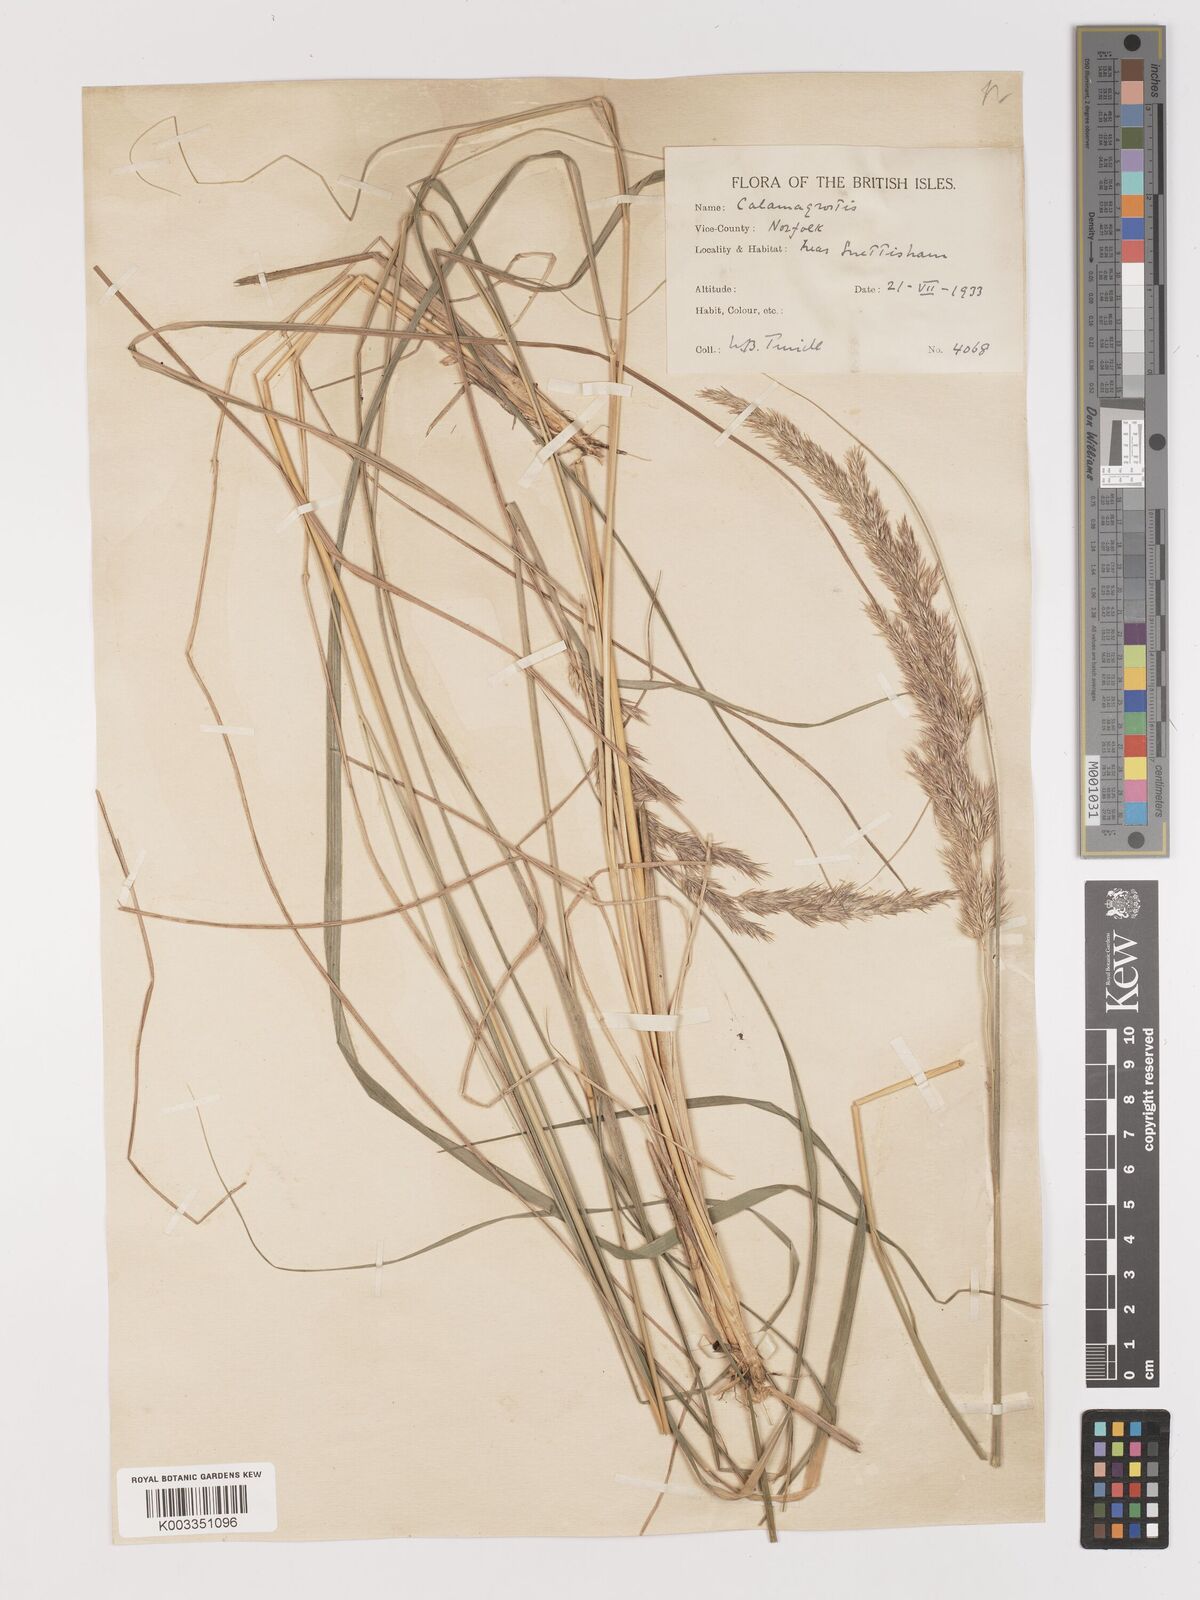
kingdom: Plantae
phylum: Tracheophyta
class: Liliopsida
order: Poales
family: Poaceae
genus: Calamagrostis
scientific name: Calamagrostis
